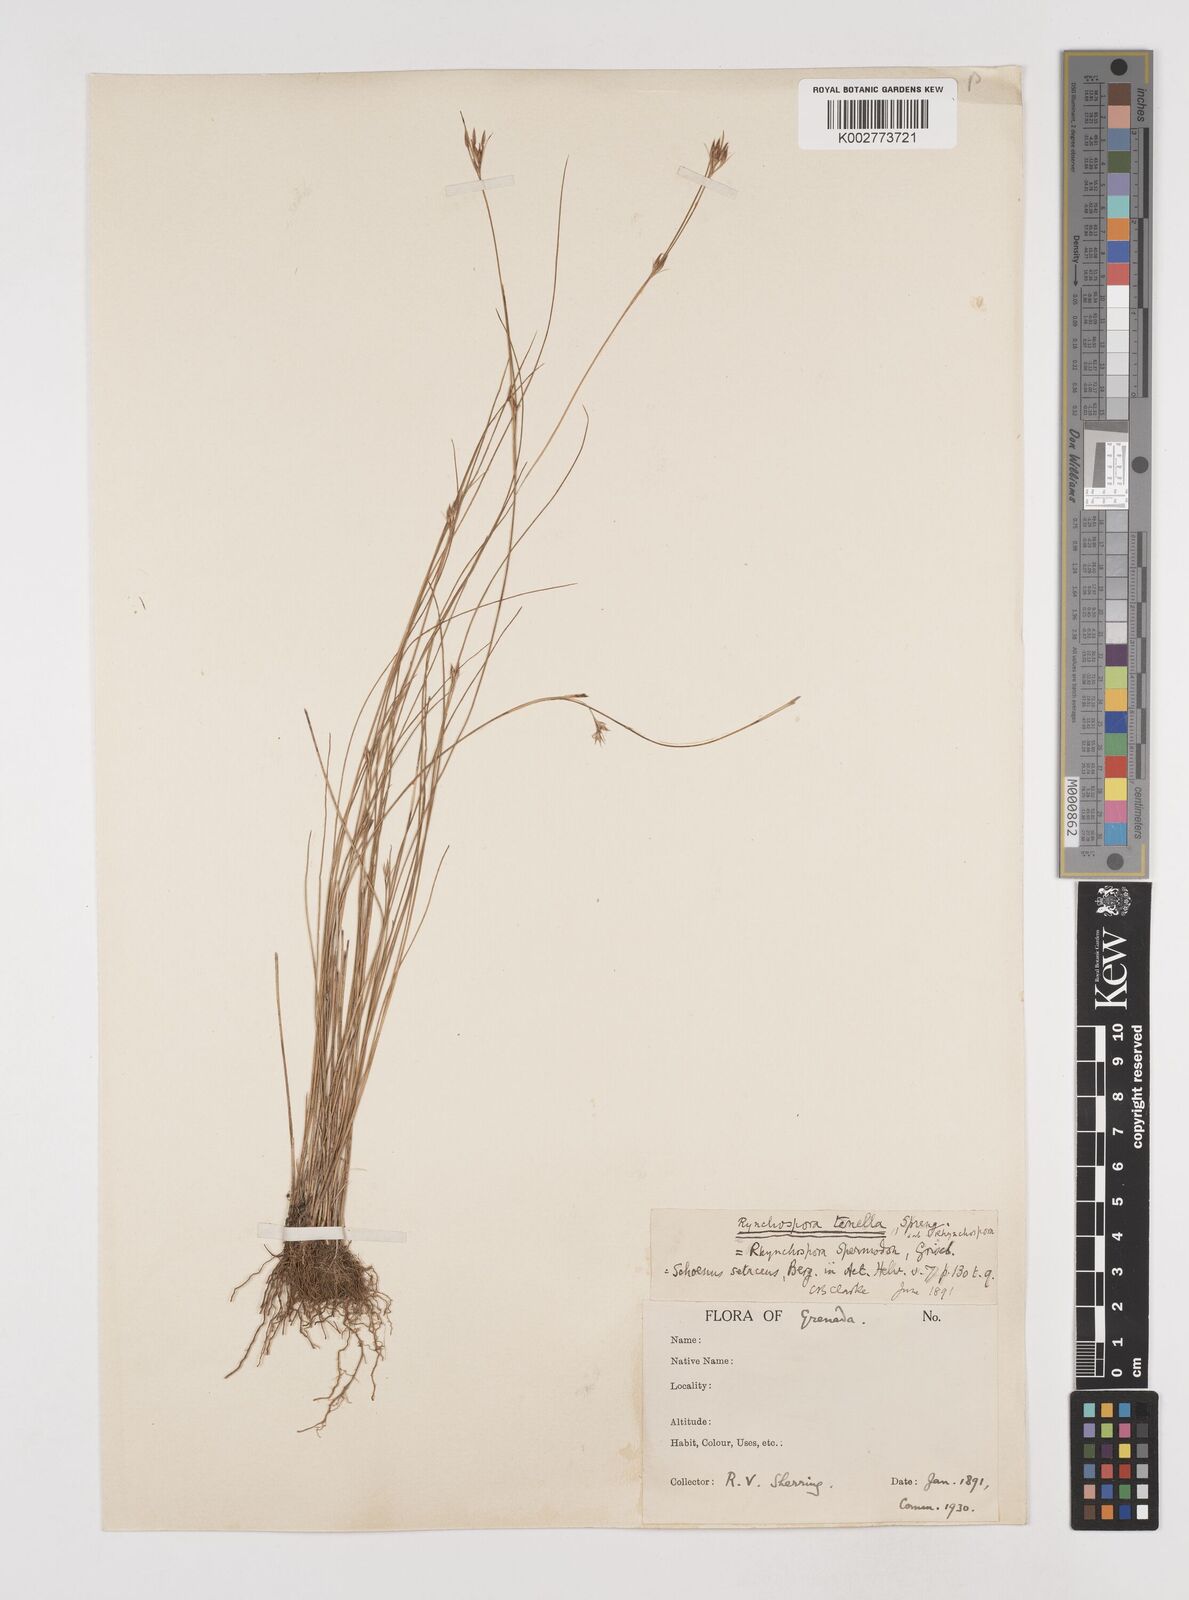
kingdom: Plantae
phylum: Tracheophyta
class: Liliopsida
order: Poales
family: Cyperaceae
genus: Rhynchospora
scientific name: Rhynchospora tenuis
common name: Quill beaksedge
